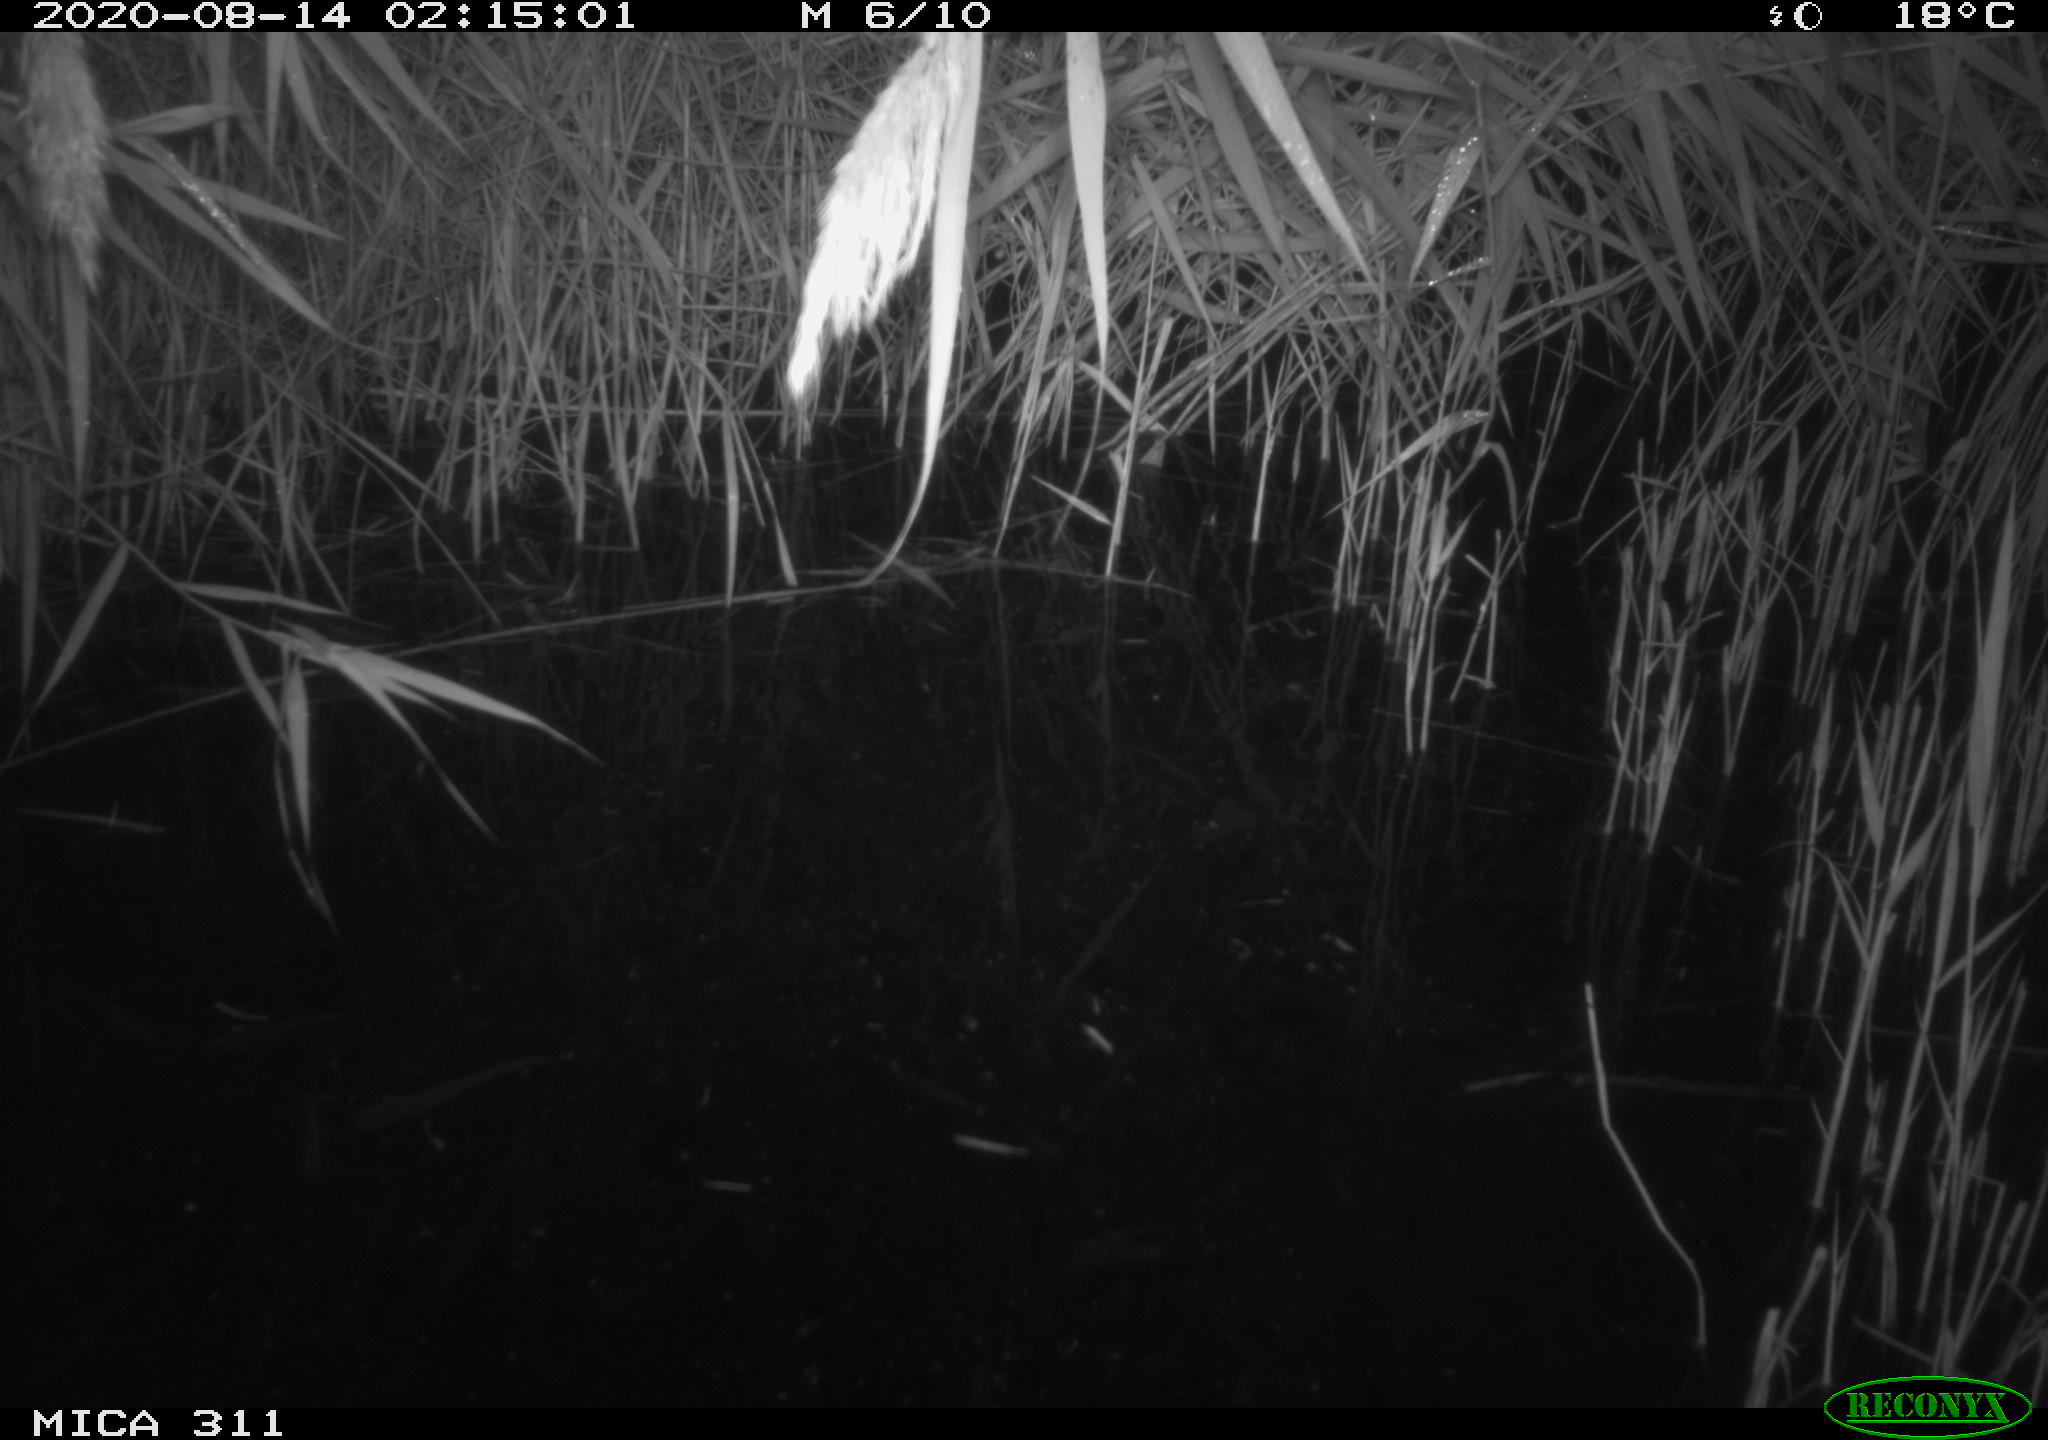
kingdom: Animalia
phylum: Chordata
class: Mammalia
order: Rodentia
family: Muridae
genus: Rattus
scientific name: Rattus norvegicus
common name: Brown rat
